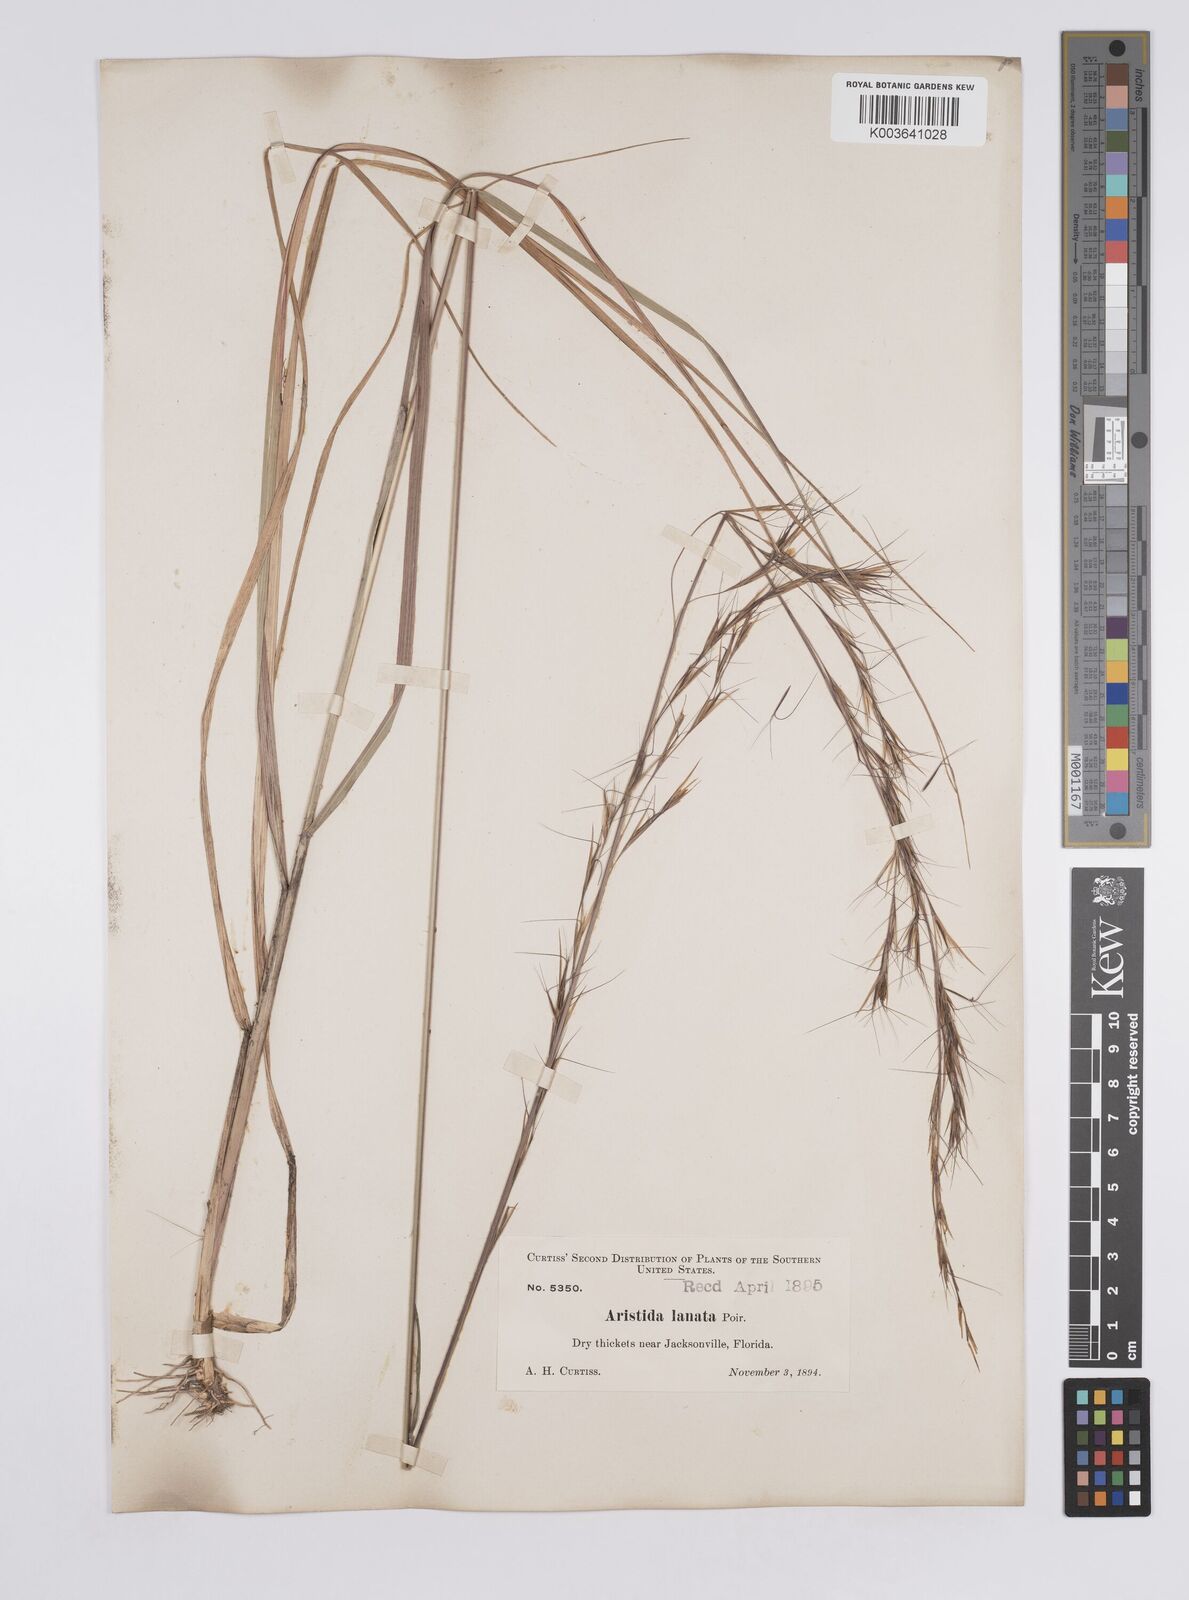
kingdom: Plantae
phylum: Tracheophyta
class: Liliopsida
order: Poales
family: Poaceae
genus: Aristida
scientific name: Aristida lanosa
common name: Woolly three-awn
